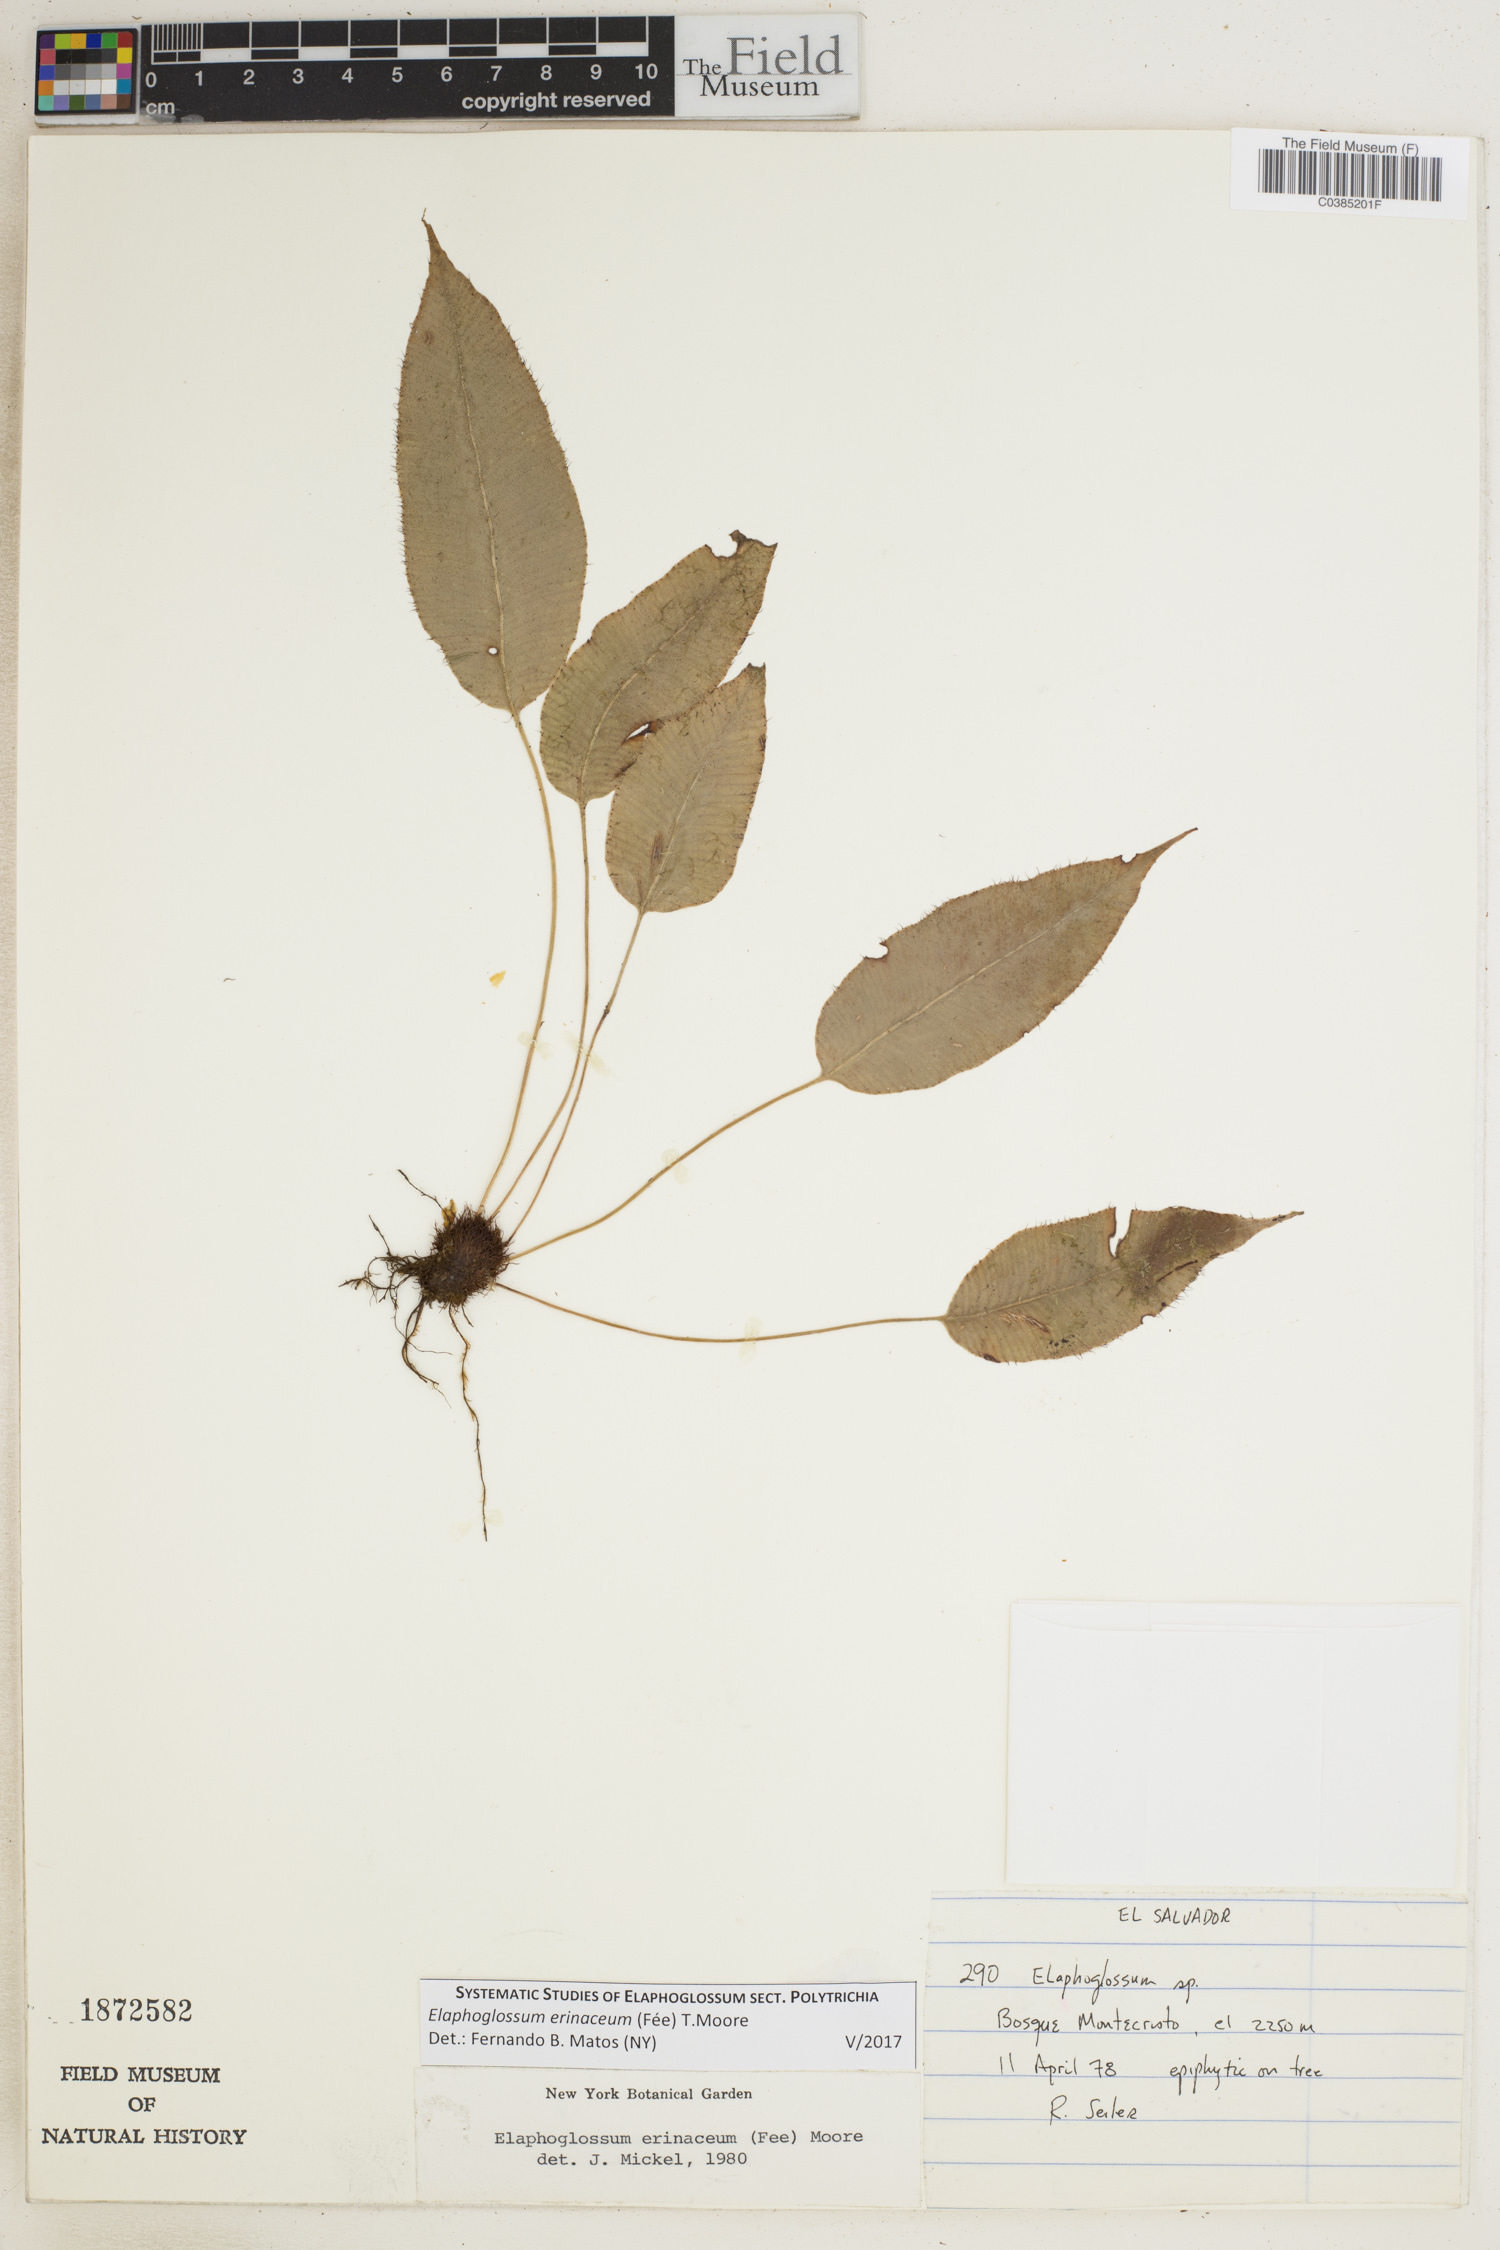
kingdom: Plantae
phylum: Tracheophyta
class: Polypodiopsida
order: Polypodiales
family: Dryopteridaceae
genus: Elaphoglossum
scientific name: Elaphoglossum erinaceum
